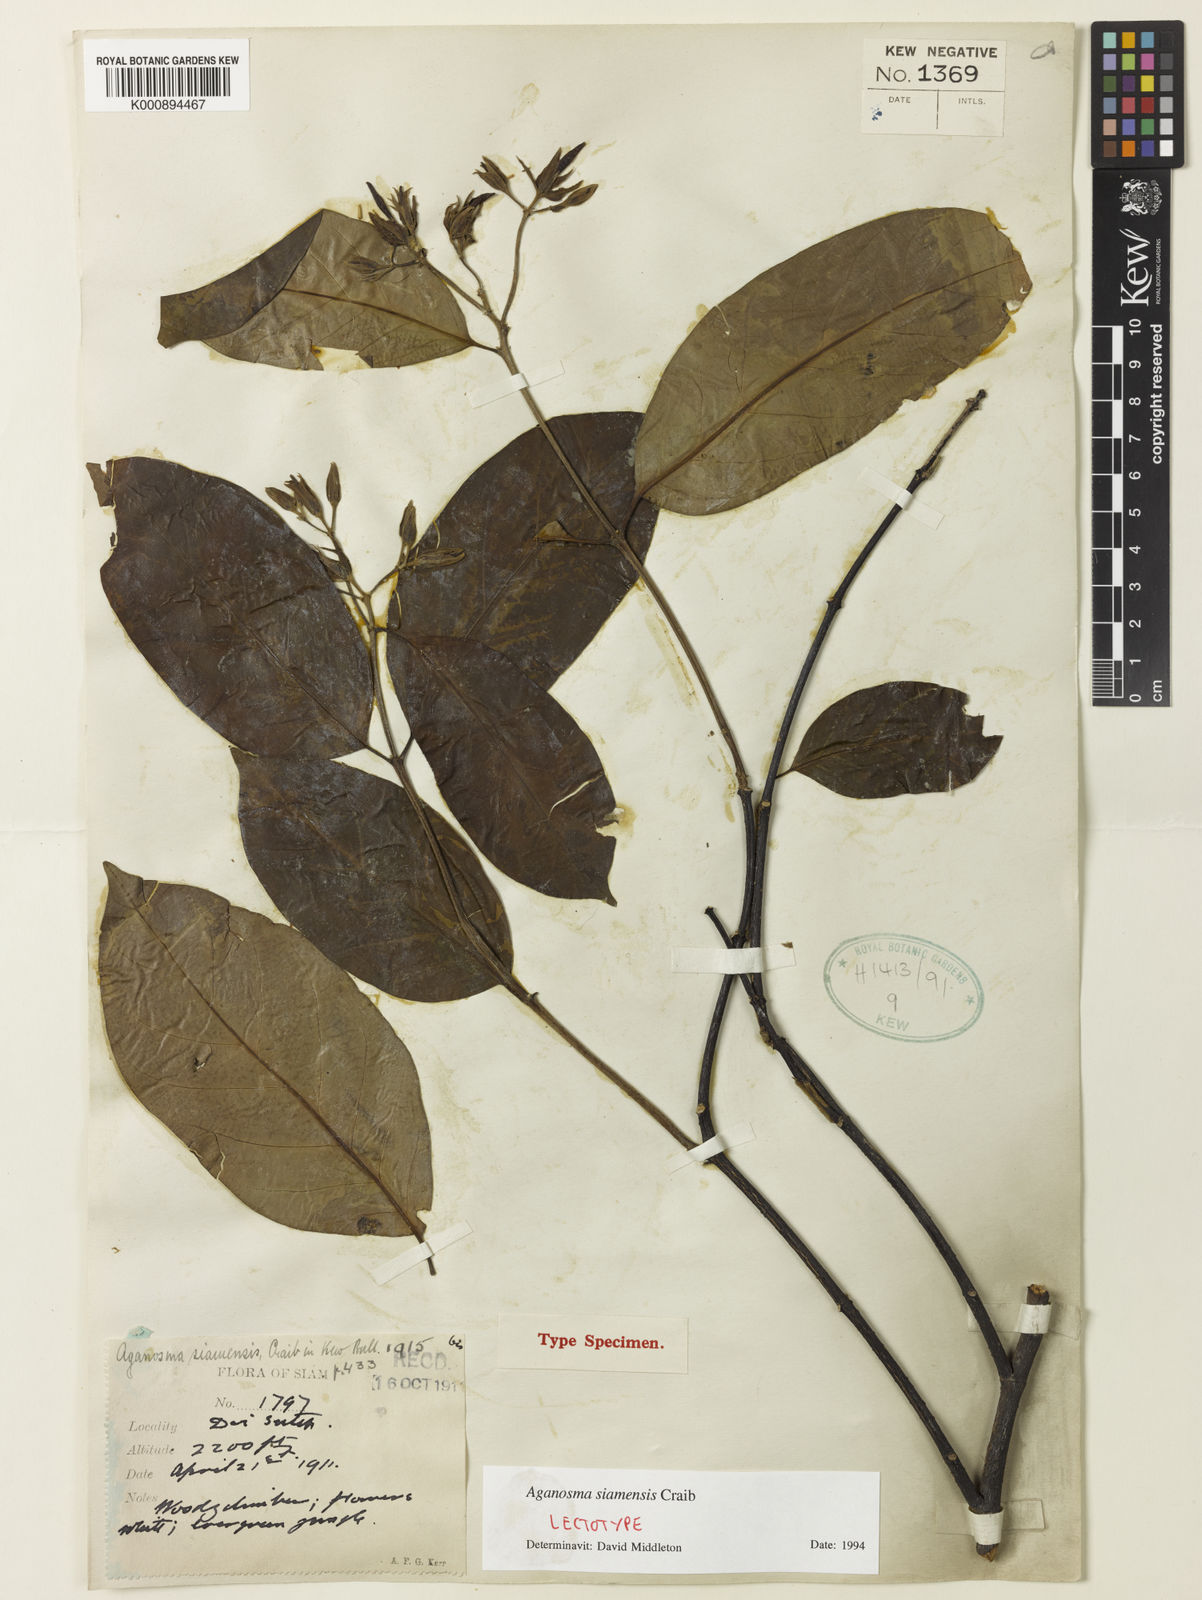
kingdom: Plantae
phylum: Tracheophyta
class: Magnoliopsida
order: Gentianales
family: Apocynaceae
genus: Aganosma
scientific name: Aganosma siamensis
